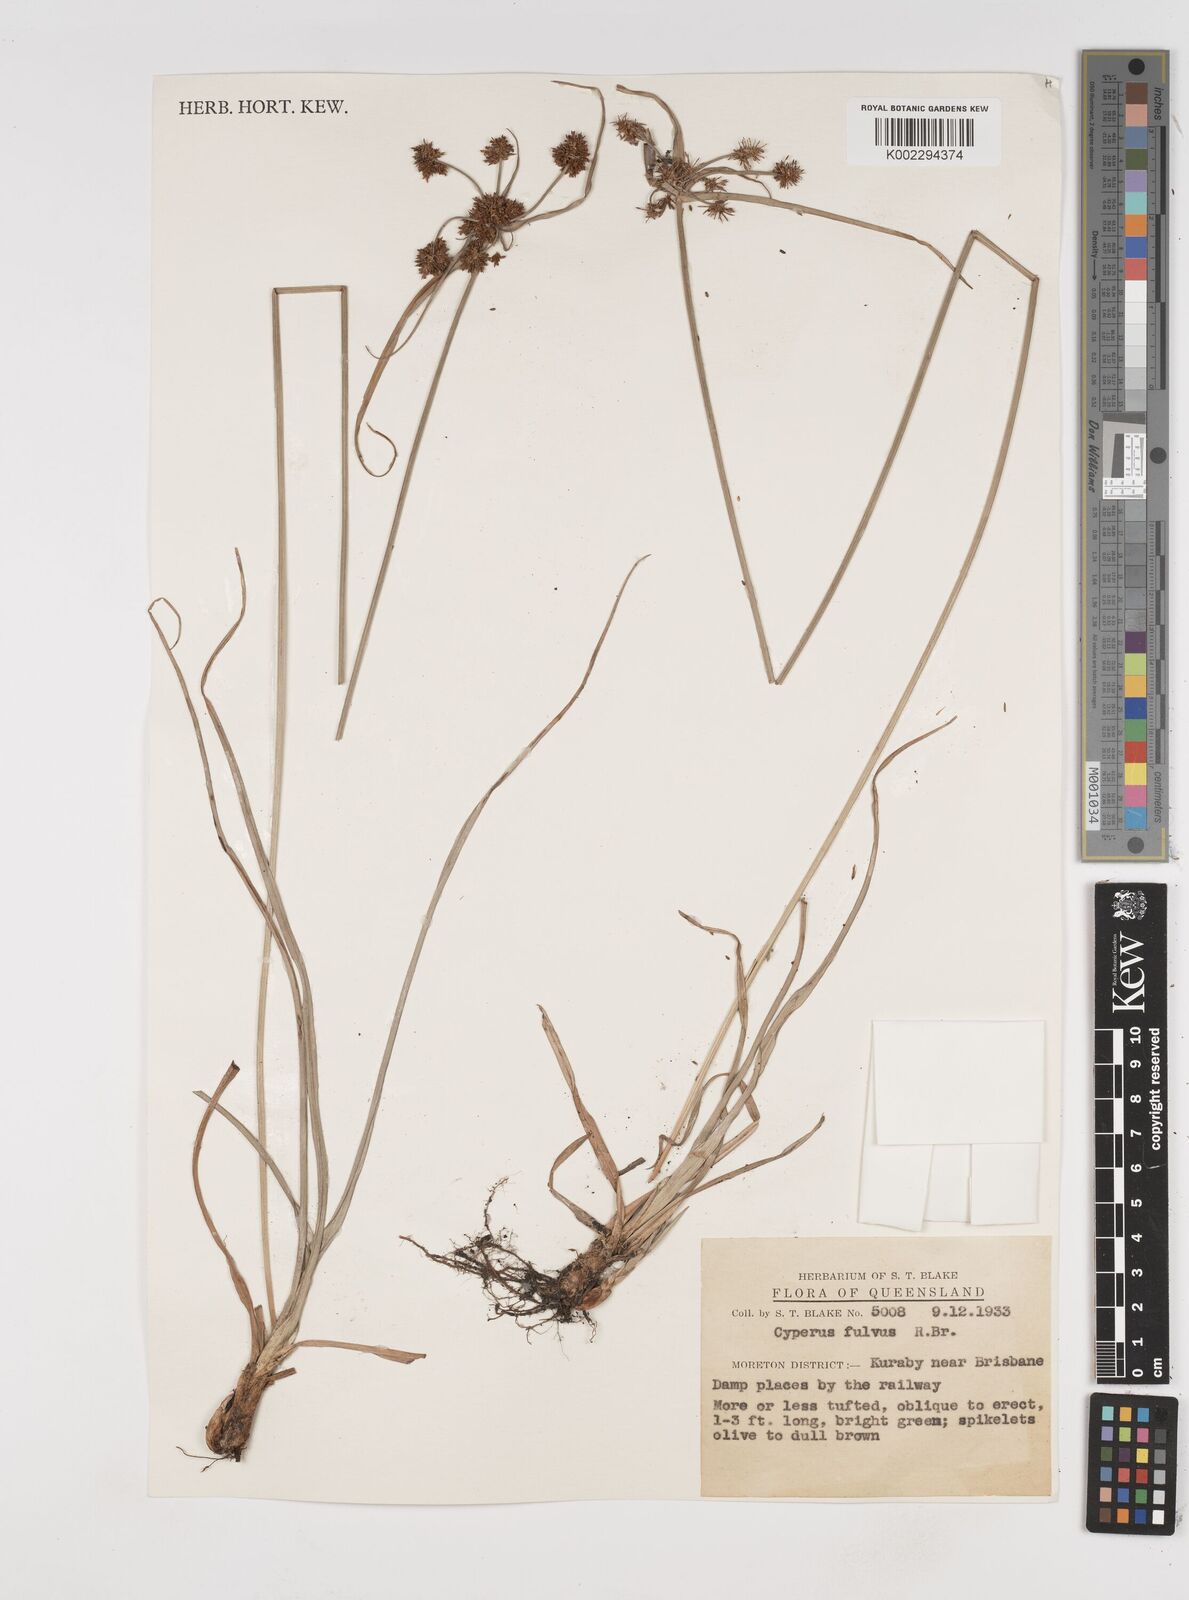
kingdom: Plantae
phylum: Tracheophyta
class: Liliopsida
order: Poales
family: Cyperaceae
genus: Cyperus
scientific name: Cyperus fulvus
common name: Sticky sedge
